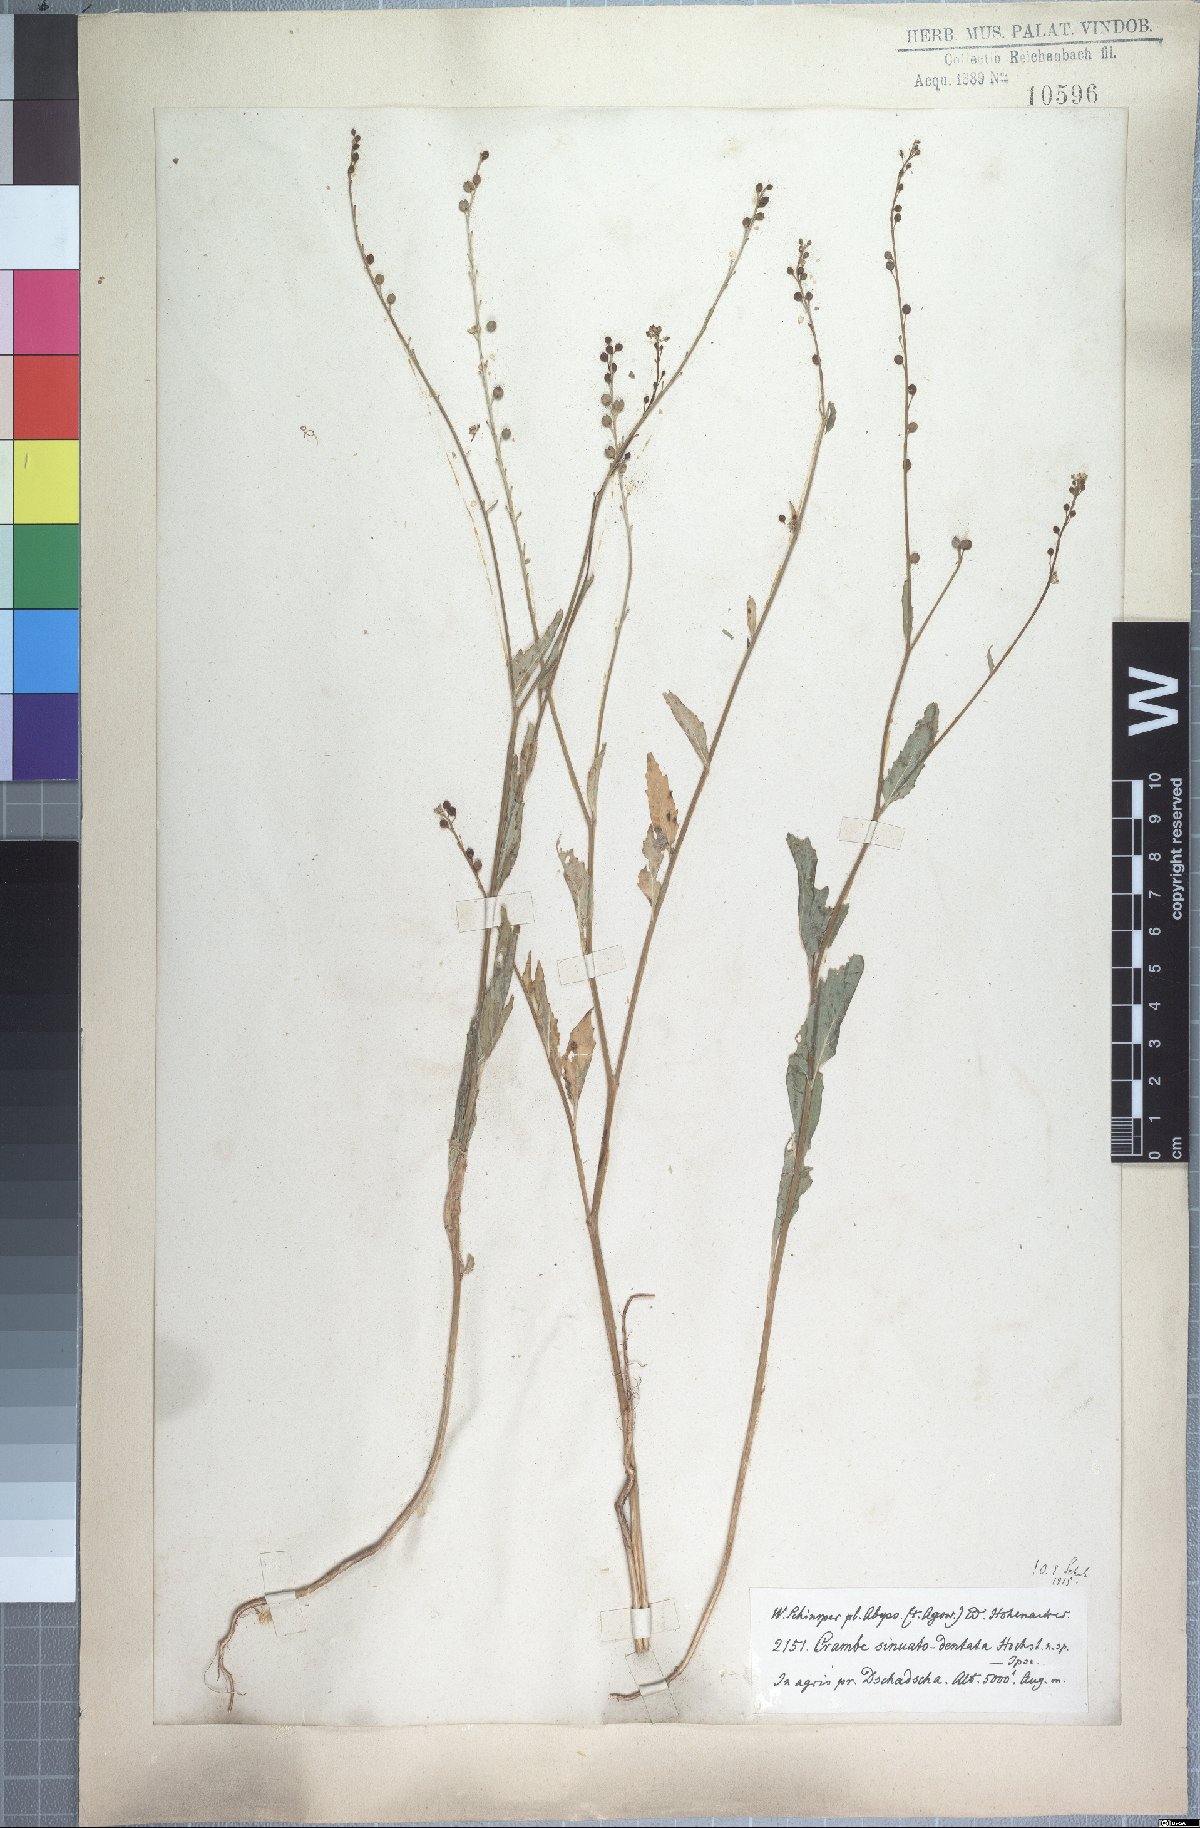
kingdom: Plantae
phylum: Tracheophyta
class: Magnoliopsida
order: Brassicales
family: Brassicaceae
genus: Crambe
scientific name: Crambe sinuato-dentata
